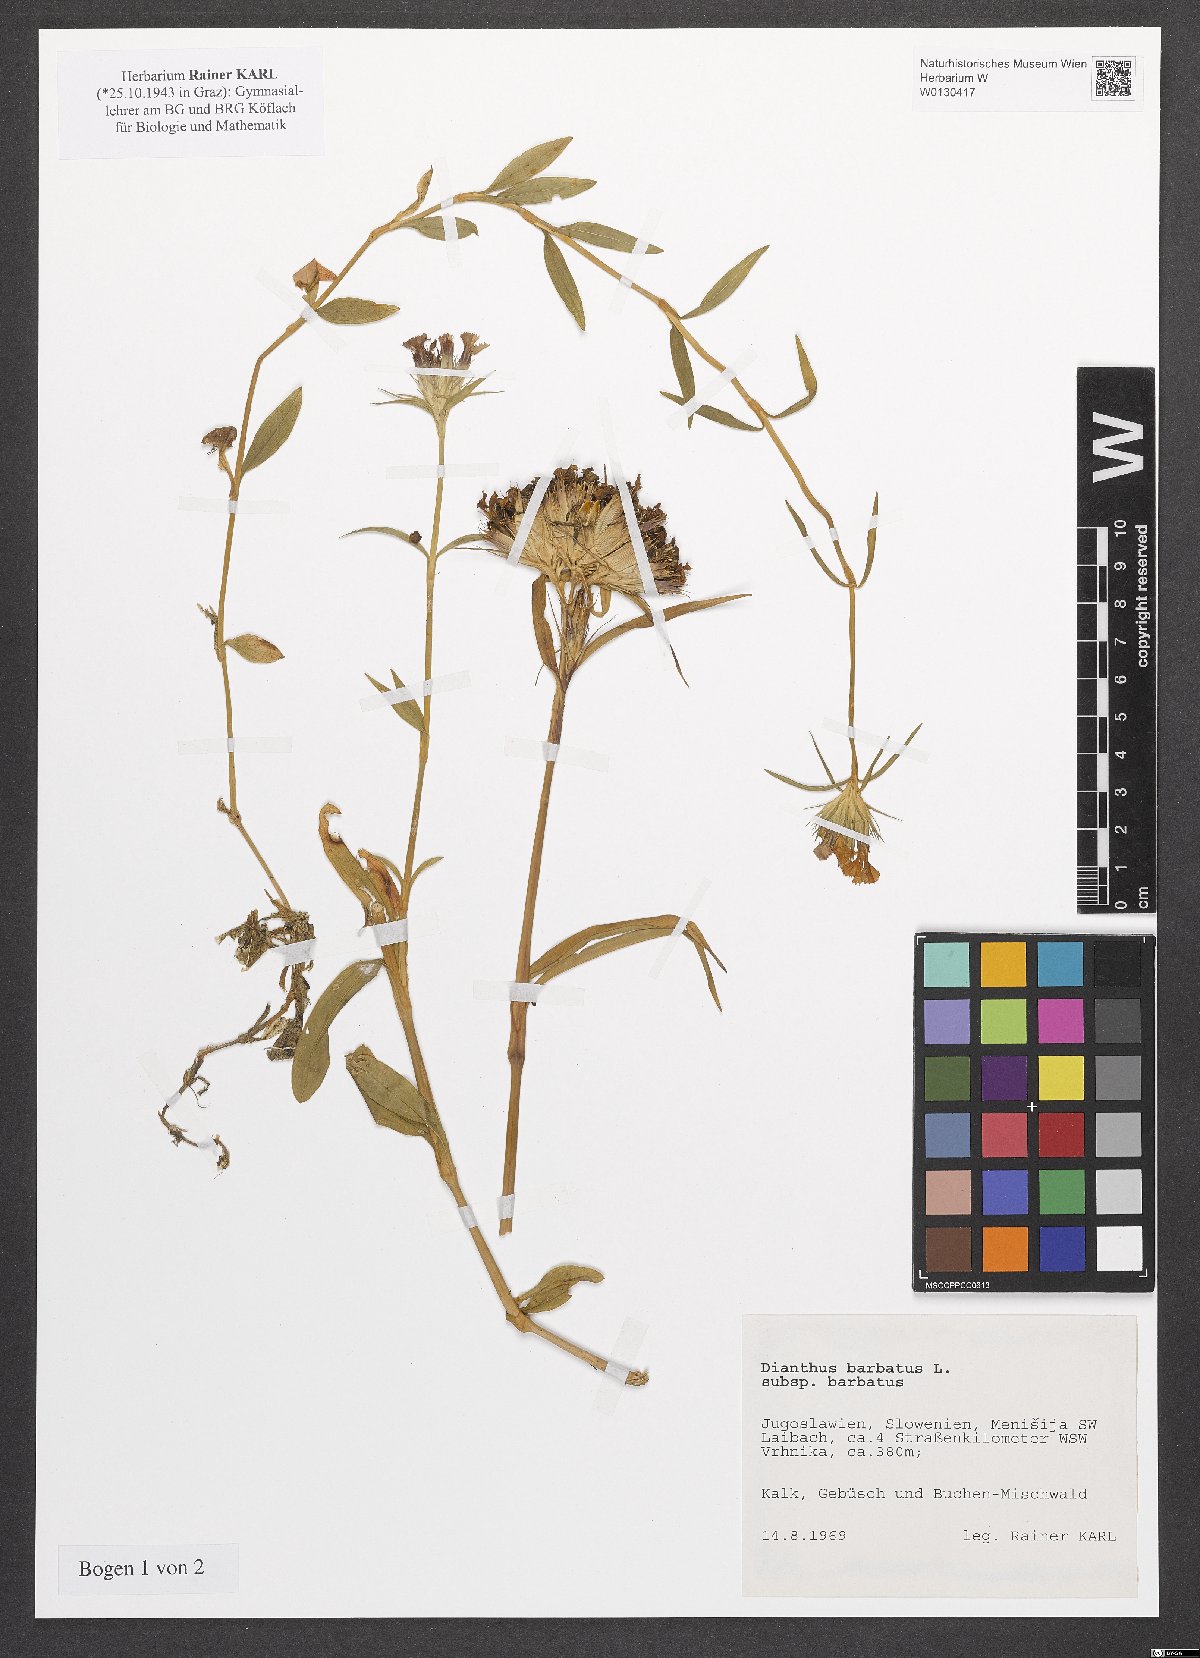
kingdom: Plantae
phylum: Tracheophyta
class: Magnoliopsida
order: Caryophyllales
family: Caryophyllaceae
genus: Dianthus
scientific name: Dianthus barbatus
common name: Sweet-william
